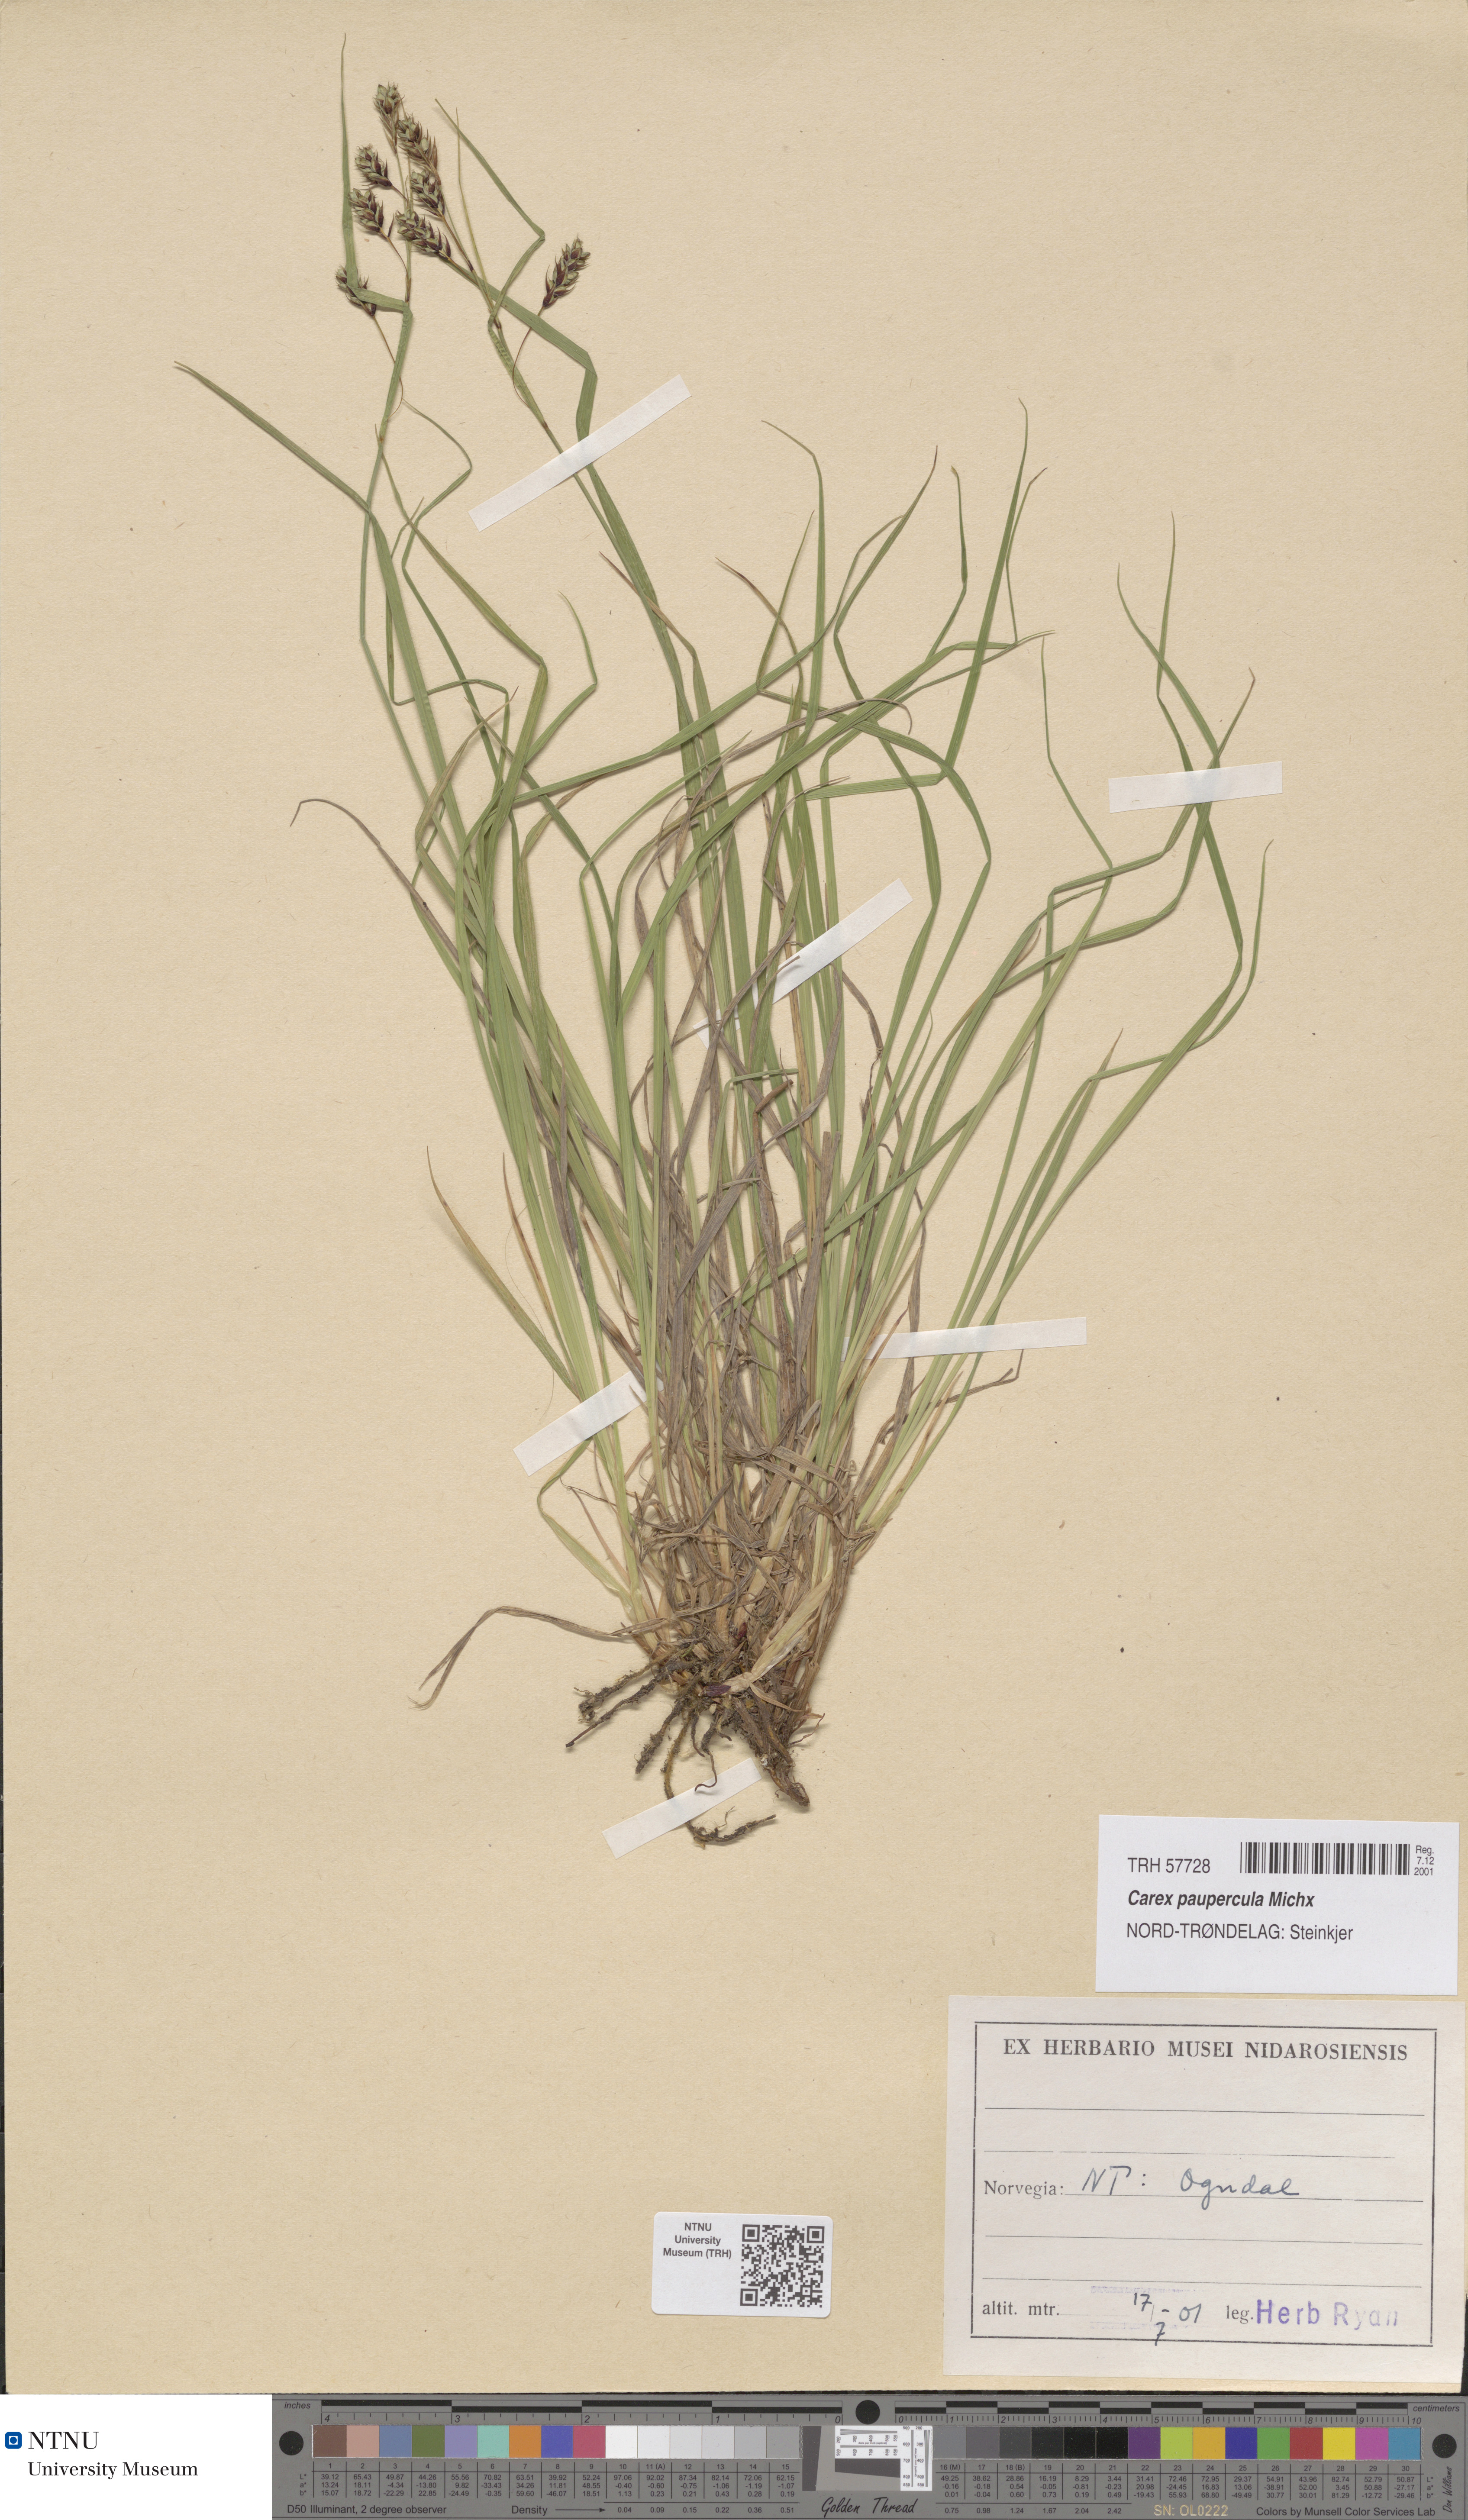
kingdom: Plantae
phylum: Tracheophyta
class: Liliopsida
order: Poales
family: Cyperaceae
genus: Carex
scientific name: Carex magellanica
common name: Bog sedge
